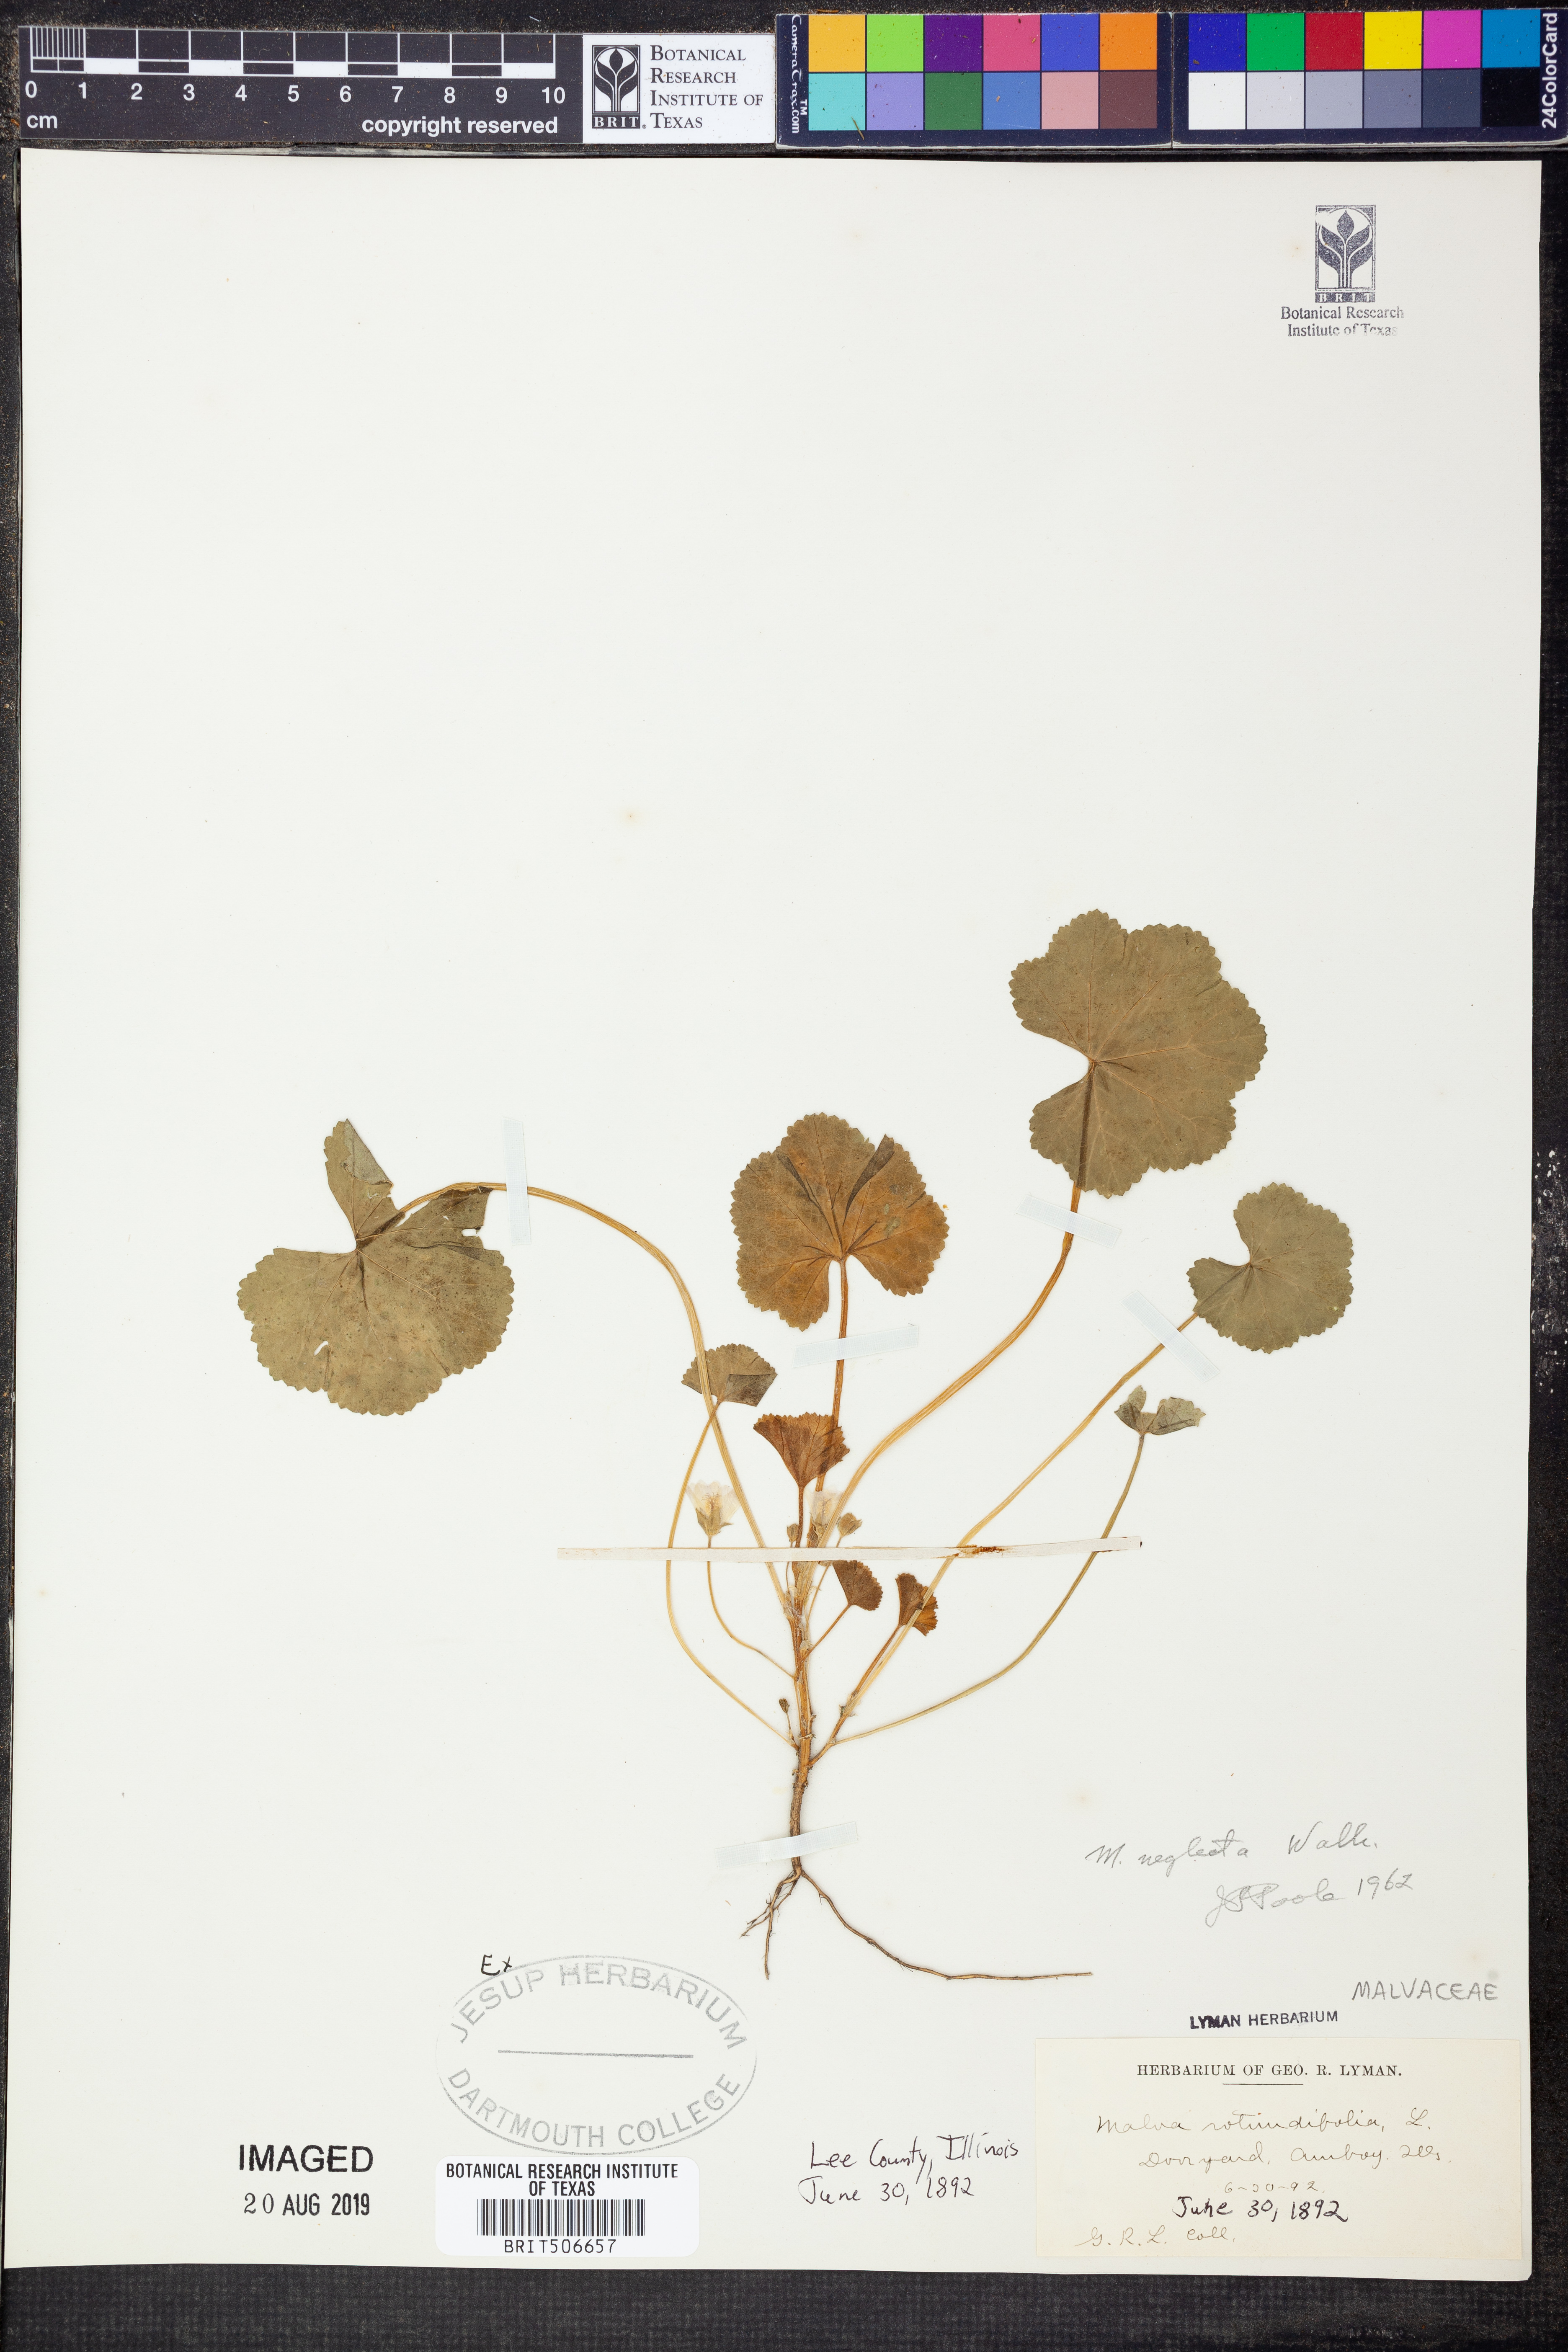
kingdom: Plantae
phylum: Tracheophyta
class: Magnoliopsida
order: Malvales
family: Malvaceae
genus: Malva
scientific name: Malva neglecta
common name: Common mallow
